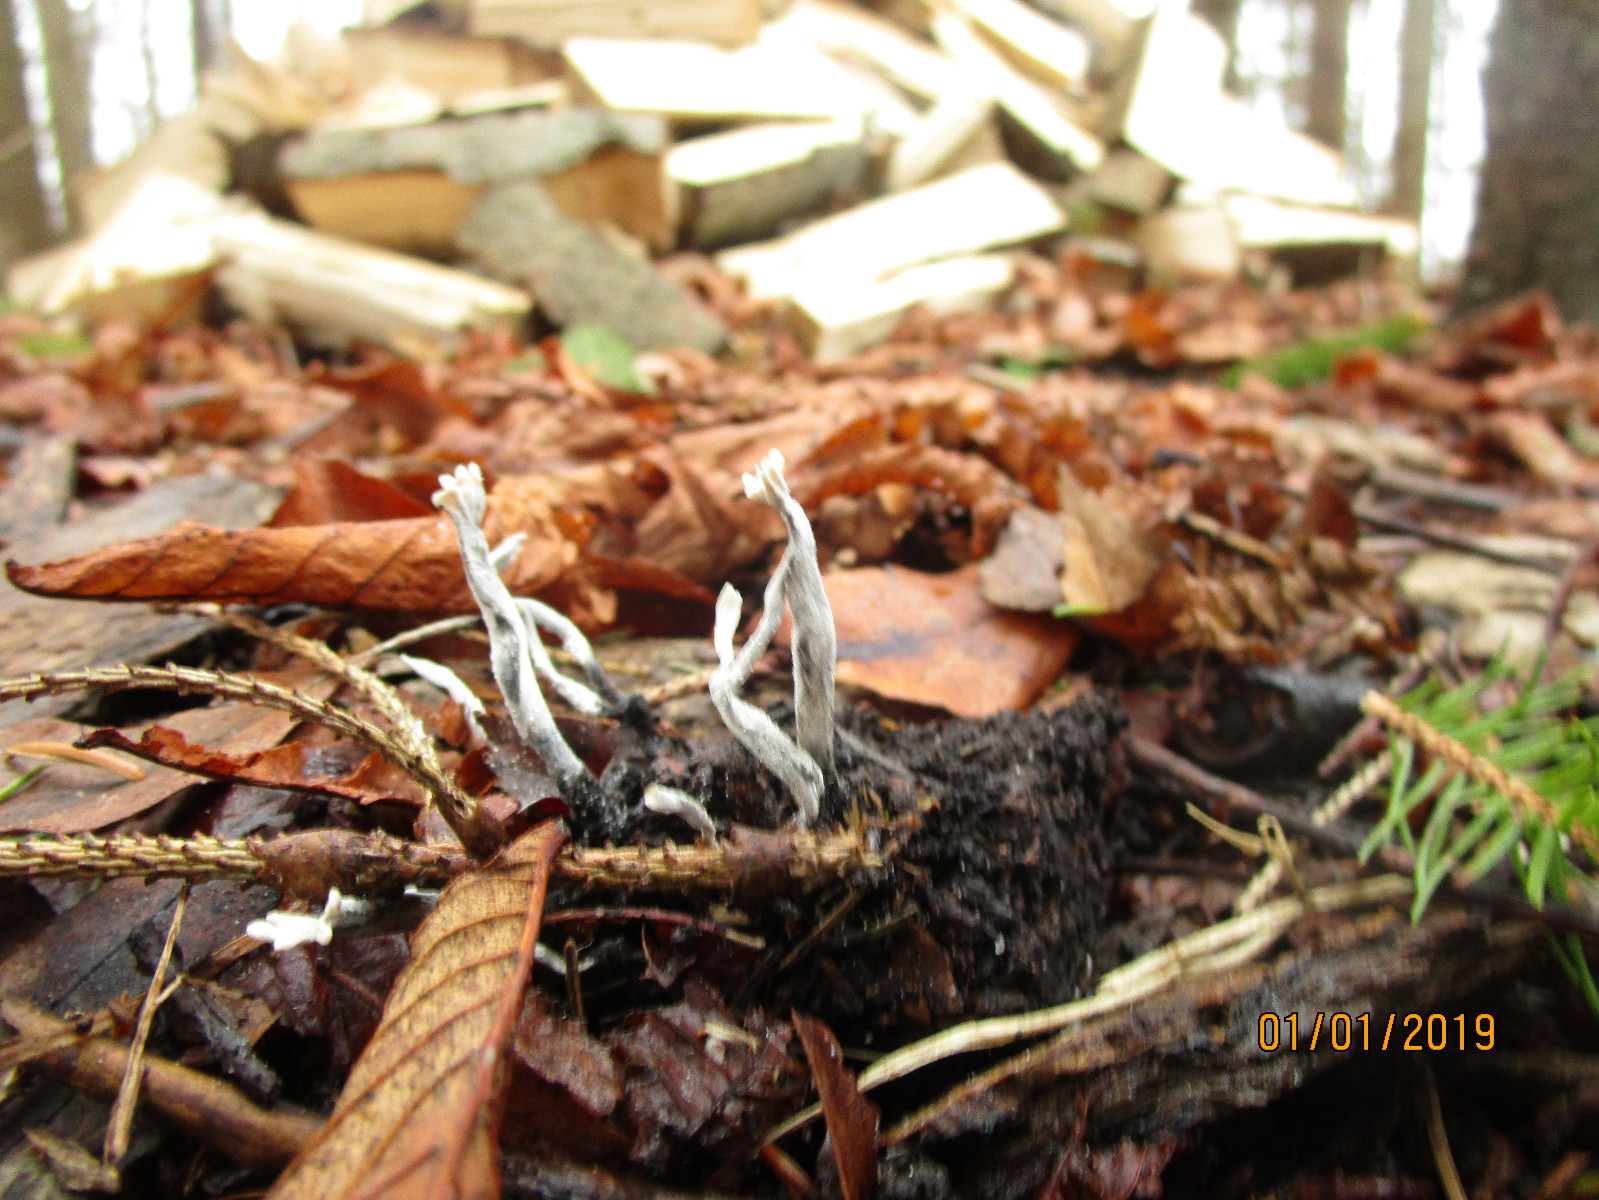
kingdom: Fungi
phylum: Ascomycota
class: Sordariomycetes
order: Xylariales
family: Xylariaceae
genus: Xylaria
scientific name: Xylaria hypoxylon
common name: grenet stødsvamp
